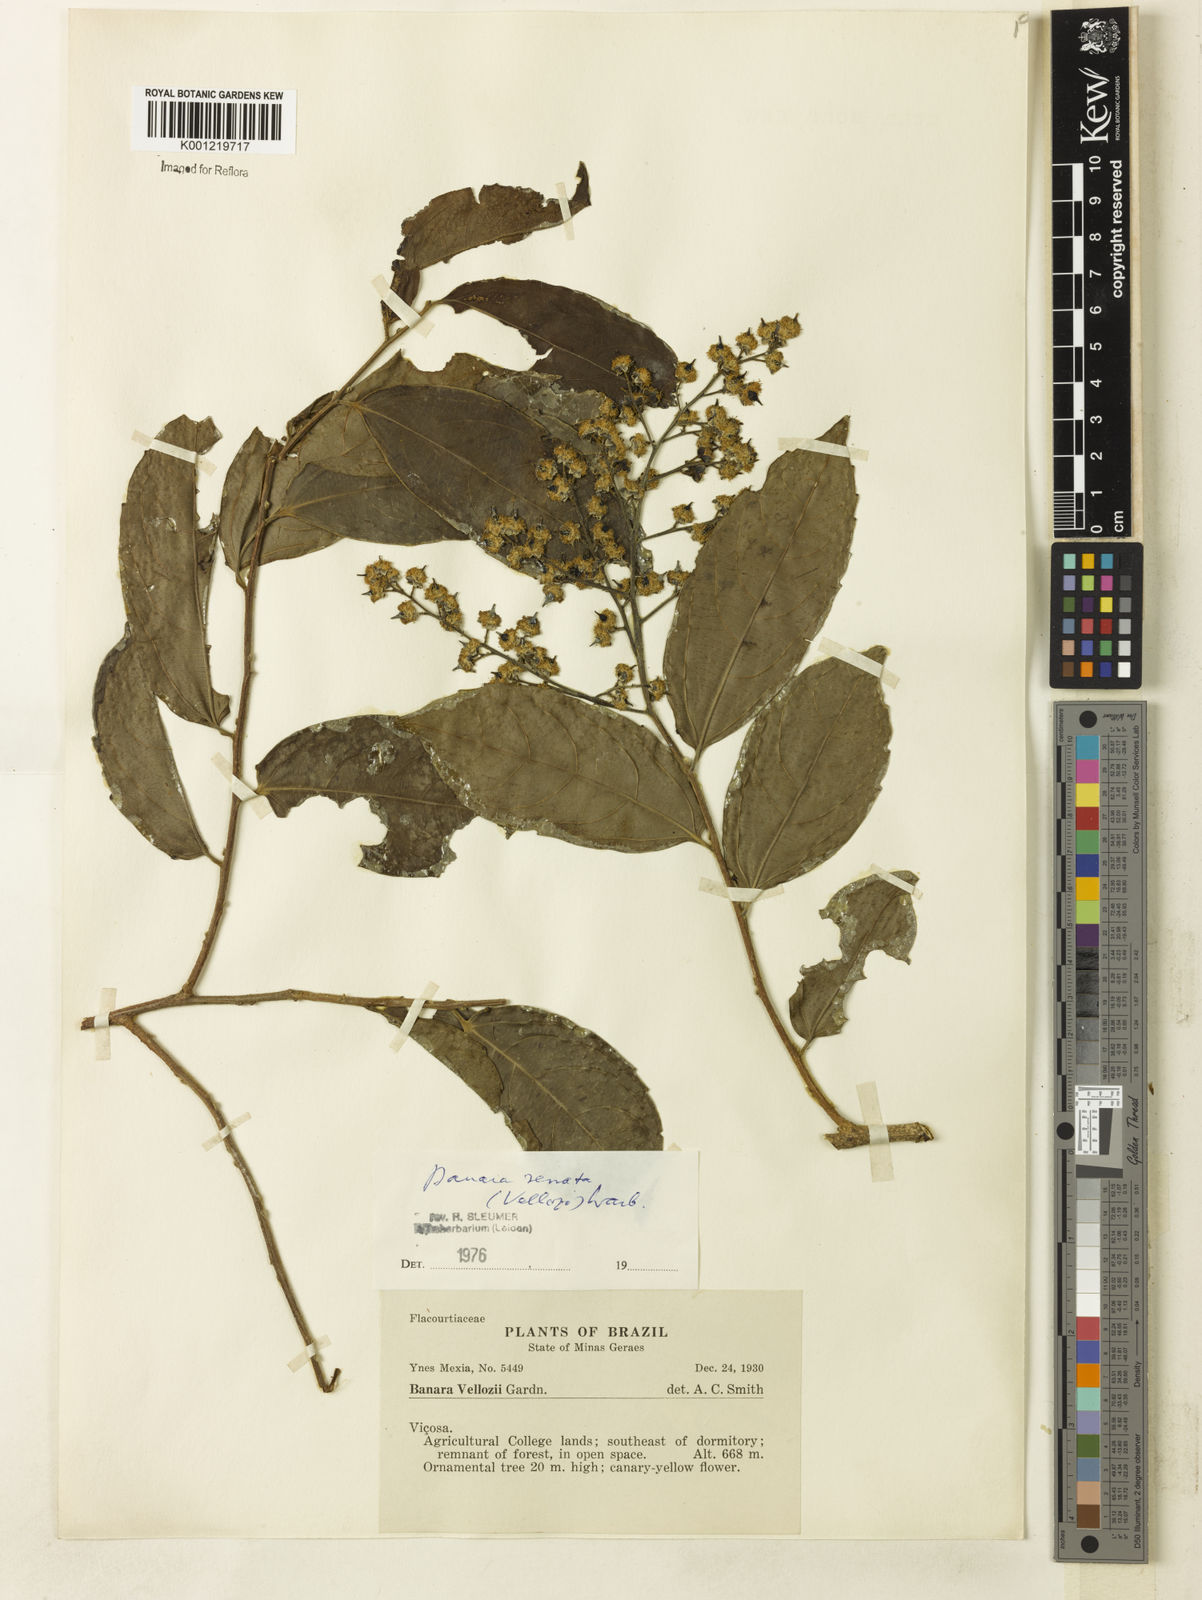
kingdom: Plantae
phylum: Tracheophyta
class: Magnoliopsida
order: Malpighiales
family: Salicaceae
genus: Banara
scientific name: Banara serrata
